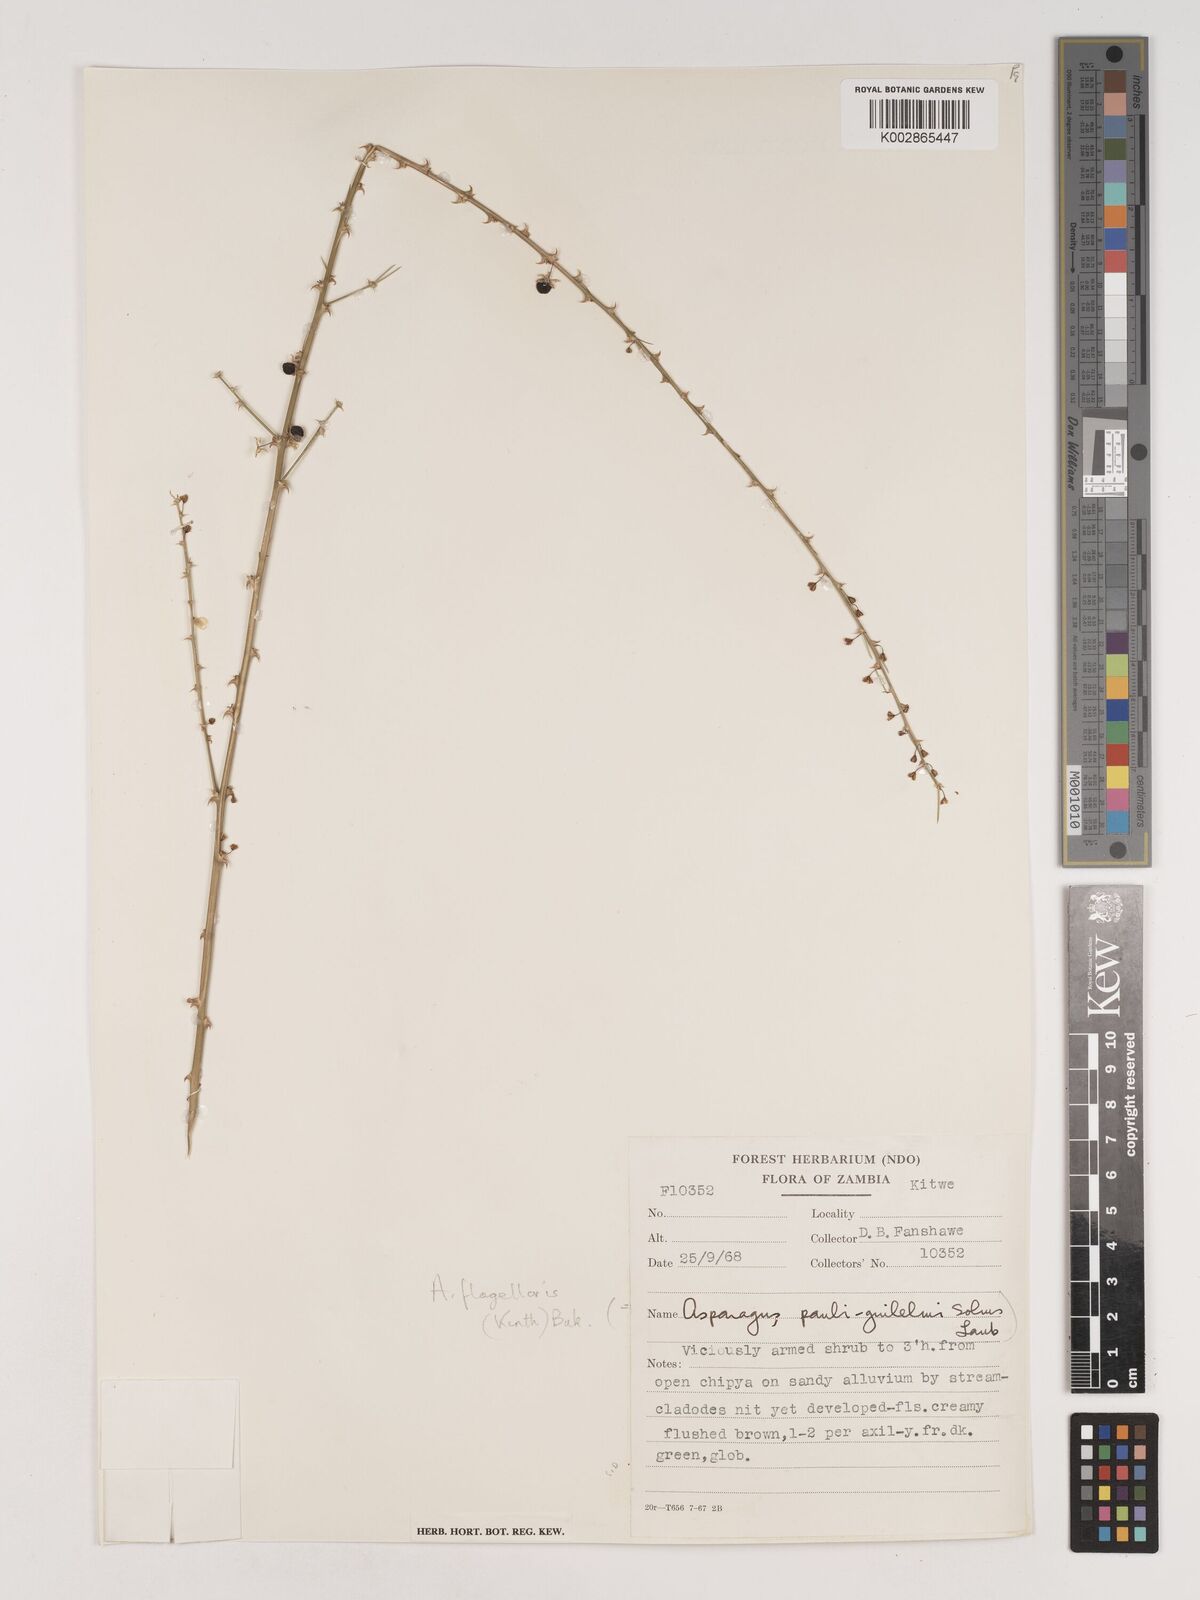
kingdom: Plantae
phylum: Tracheophyta
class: Liliopsida
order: Asparagales
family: Asparagaceae
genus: Asparagus
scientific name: Asparagus flagellaris
